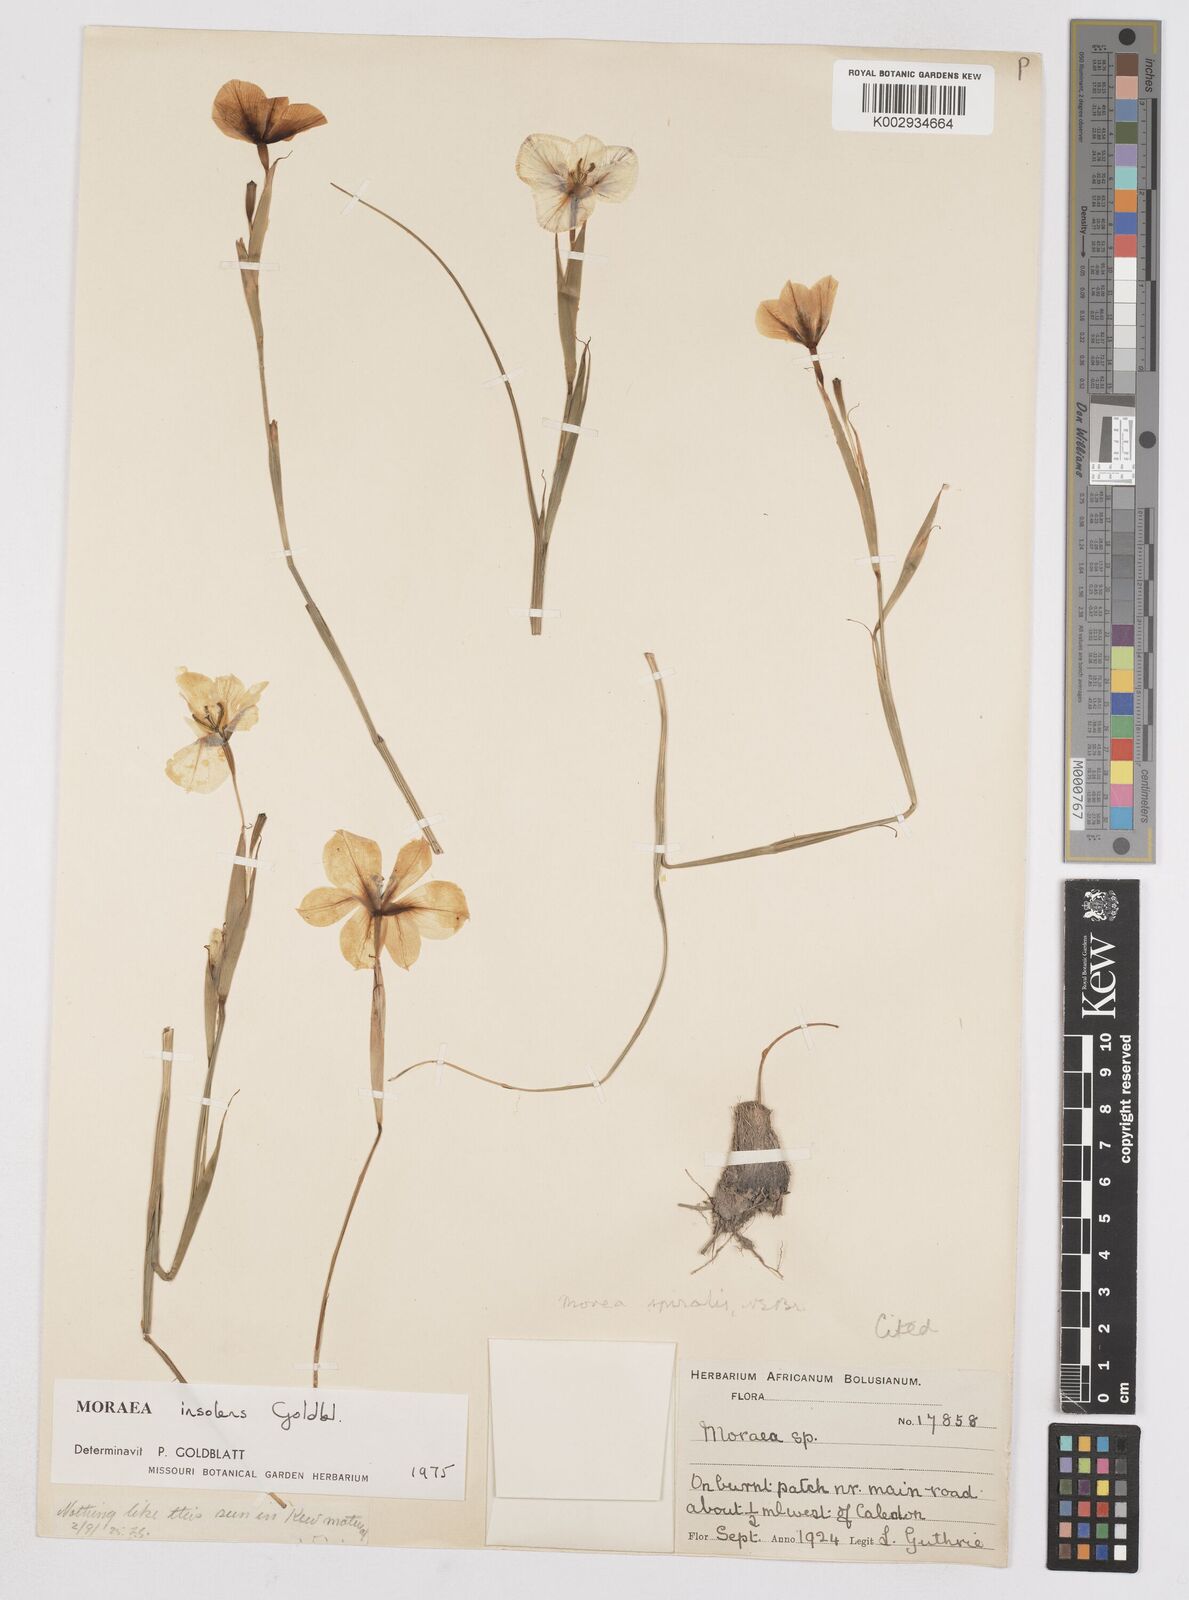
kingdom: Plantae
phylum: Tracheophyta
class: Liliopsida
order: Asparagales
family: Iridaceae
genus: Moraea
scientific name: Moraea insolens
